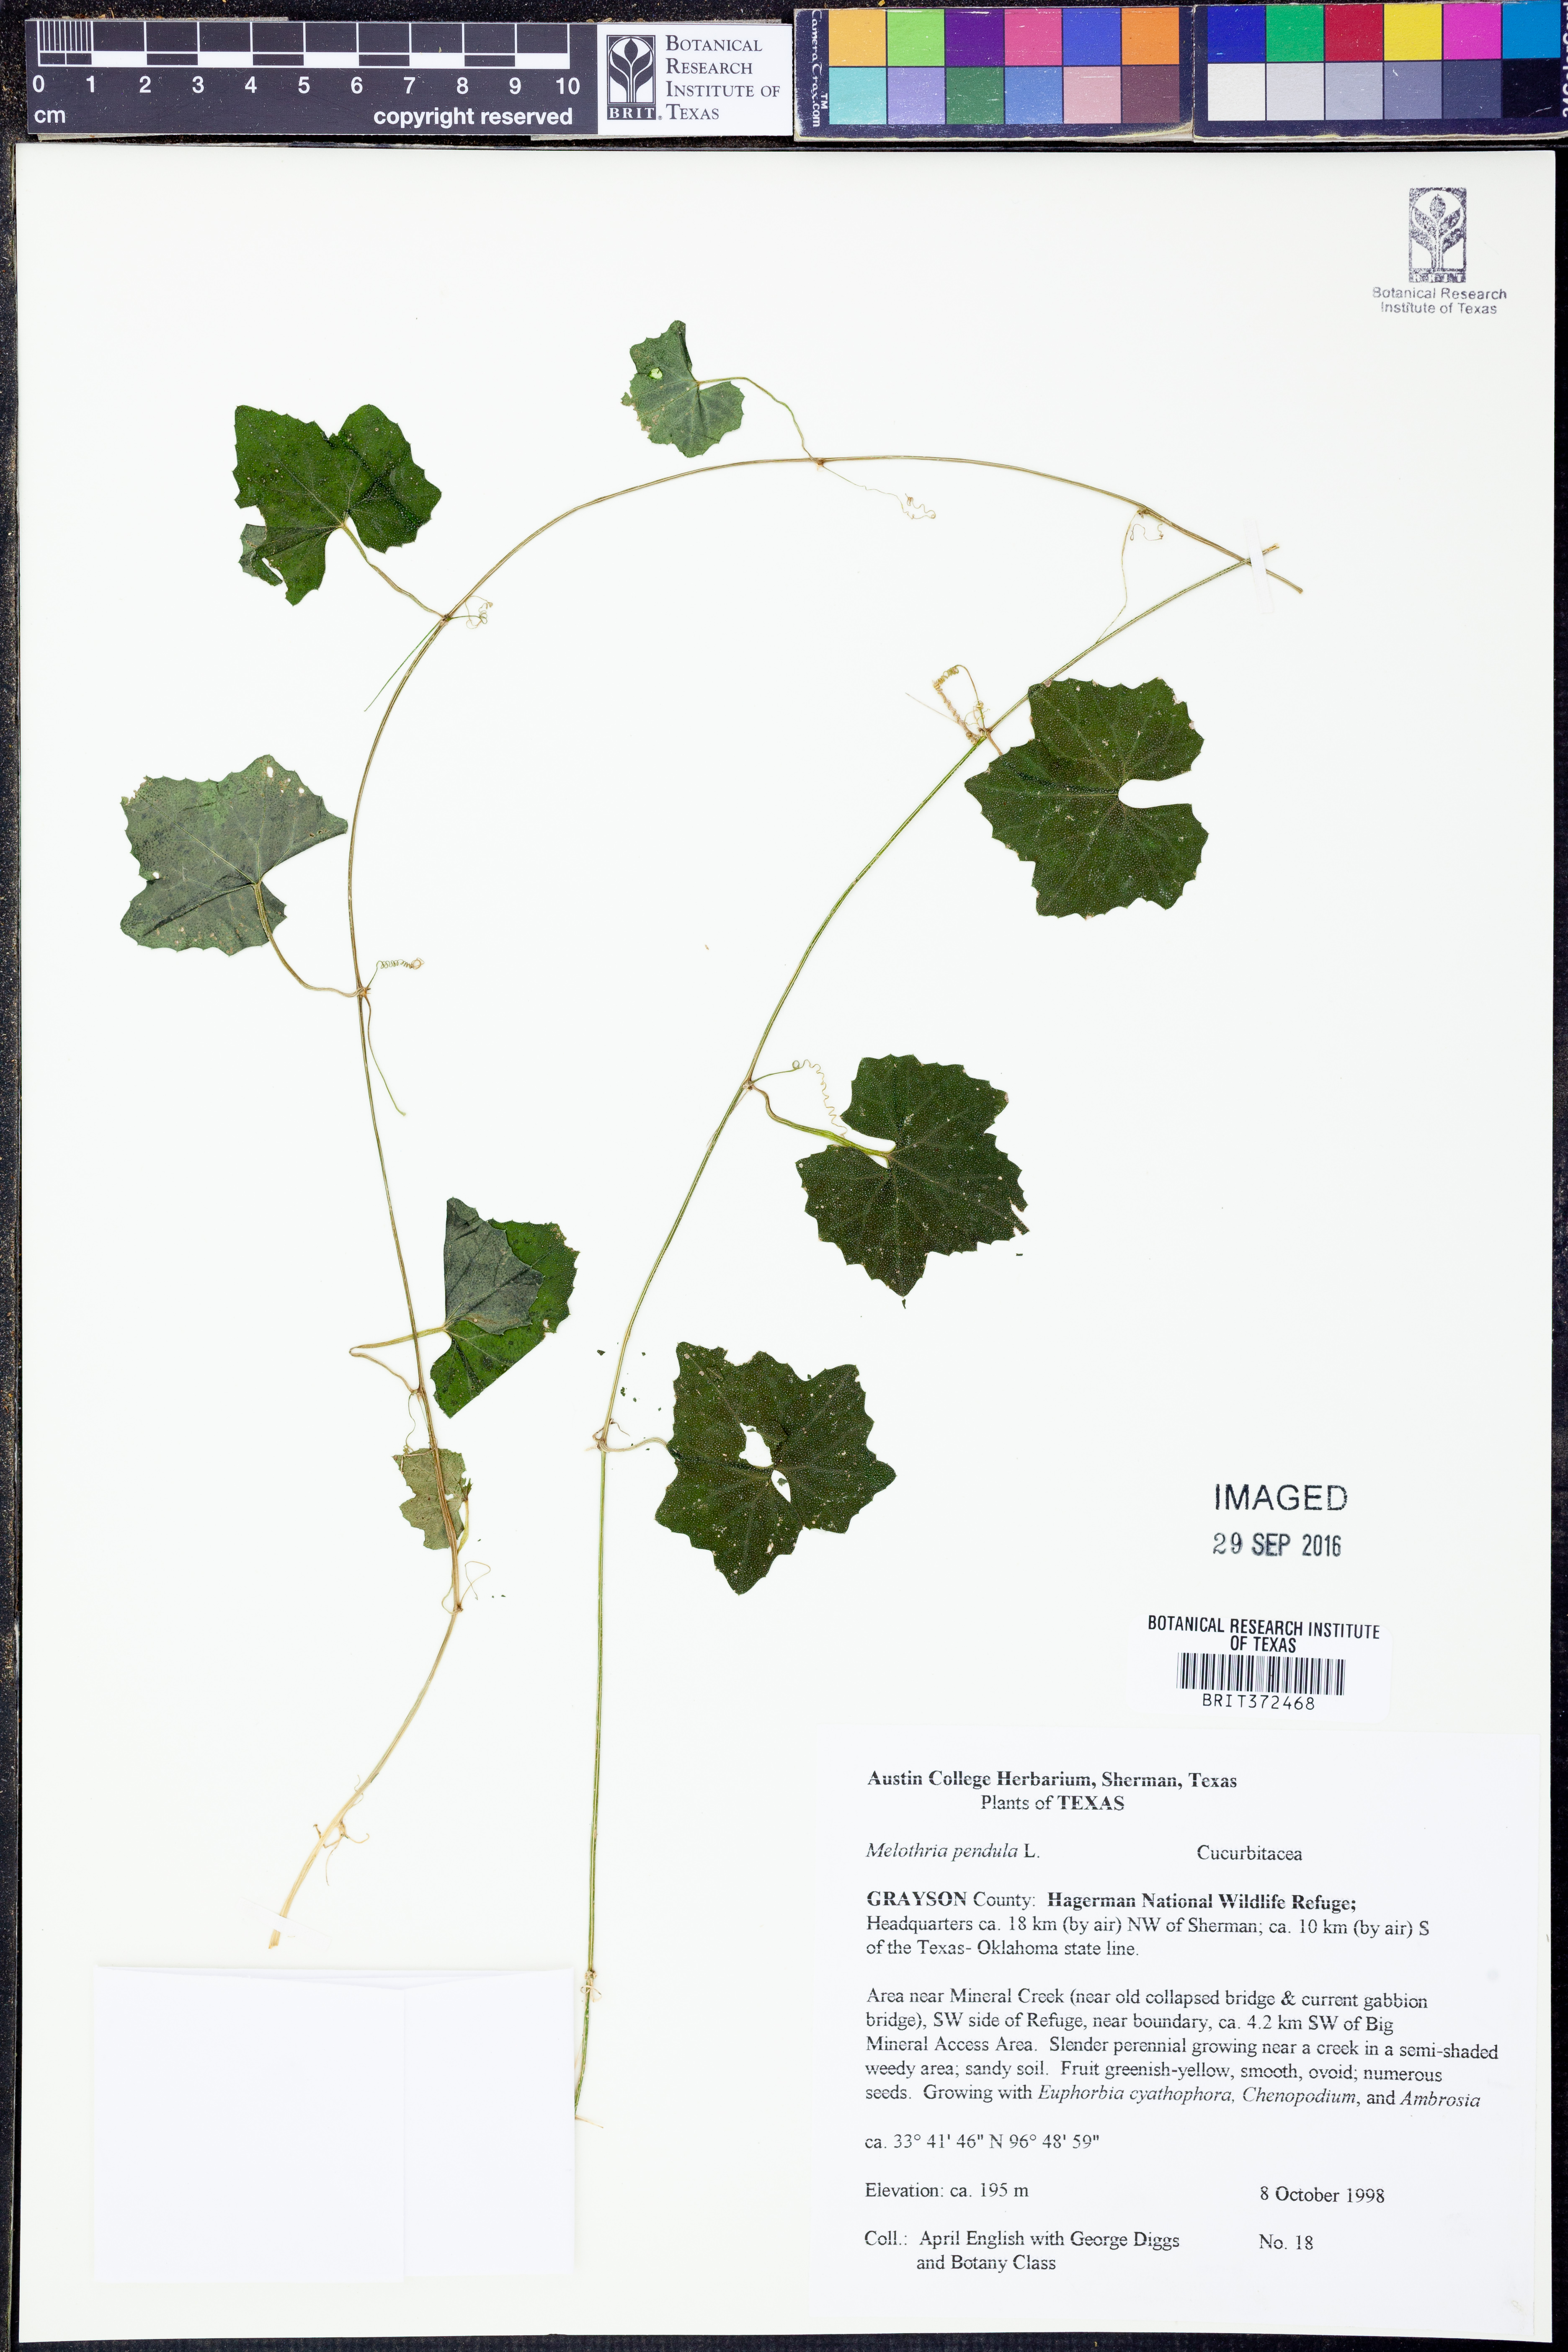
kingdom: Plantae
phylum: Tracheophyta
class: Magnoliopsida
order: Cucurbitales
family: Cucurbitaceae
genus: Melothria
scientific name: Melothria pendula
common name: Creeping-cucumber
